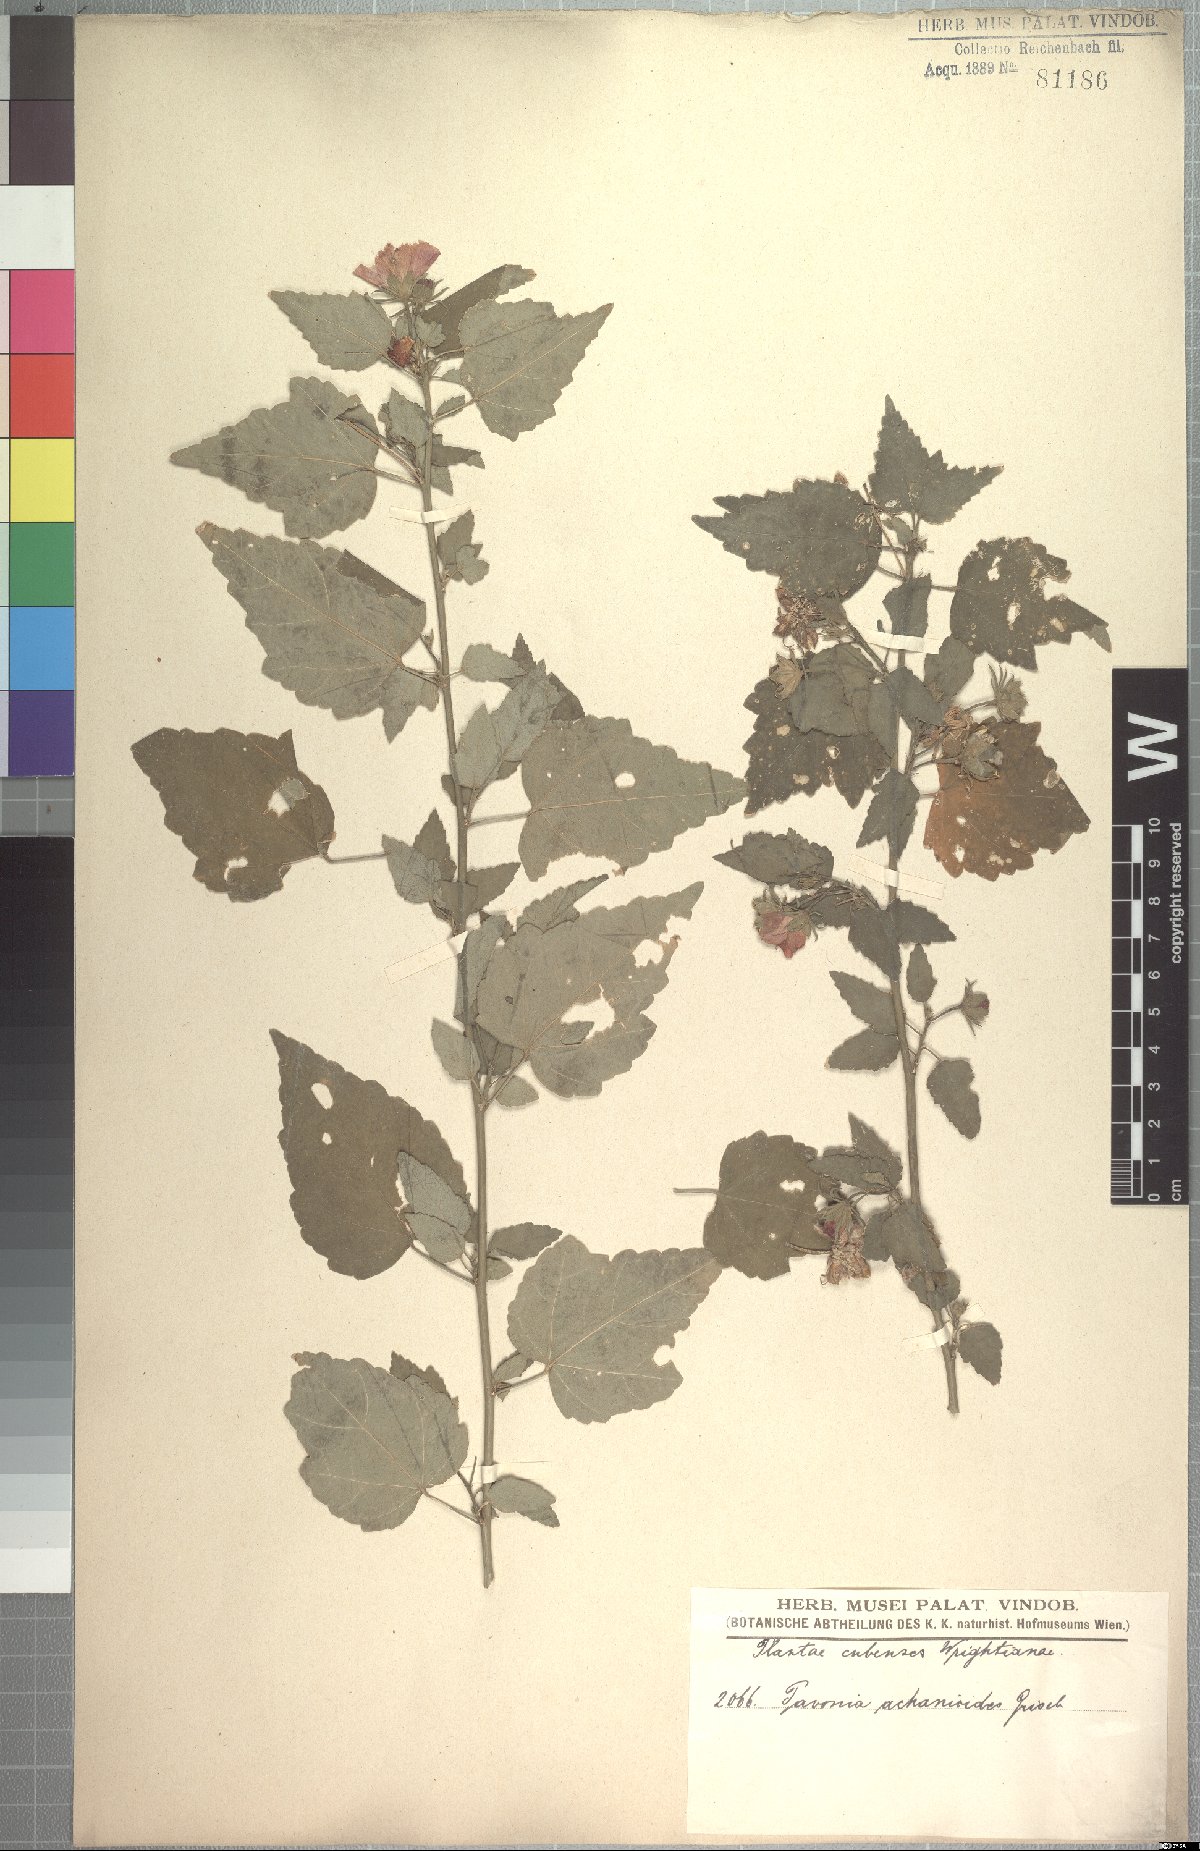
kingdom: Plantae
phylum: Tracheophyta
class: Magnoliopsida
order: Malvales
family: Malvaceae
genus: Pavonia
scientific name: Pavonia achanioides
